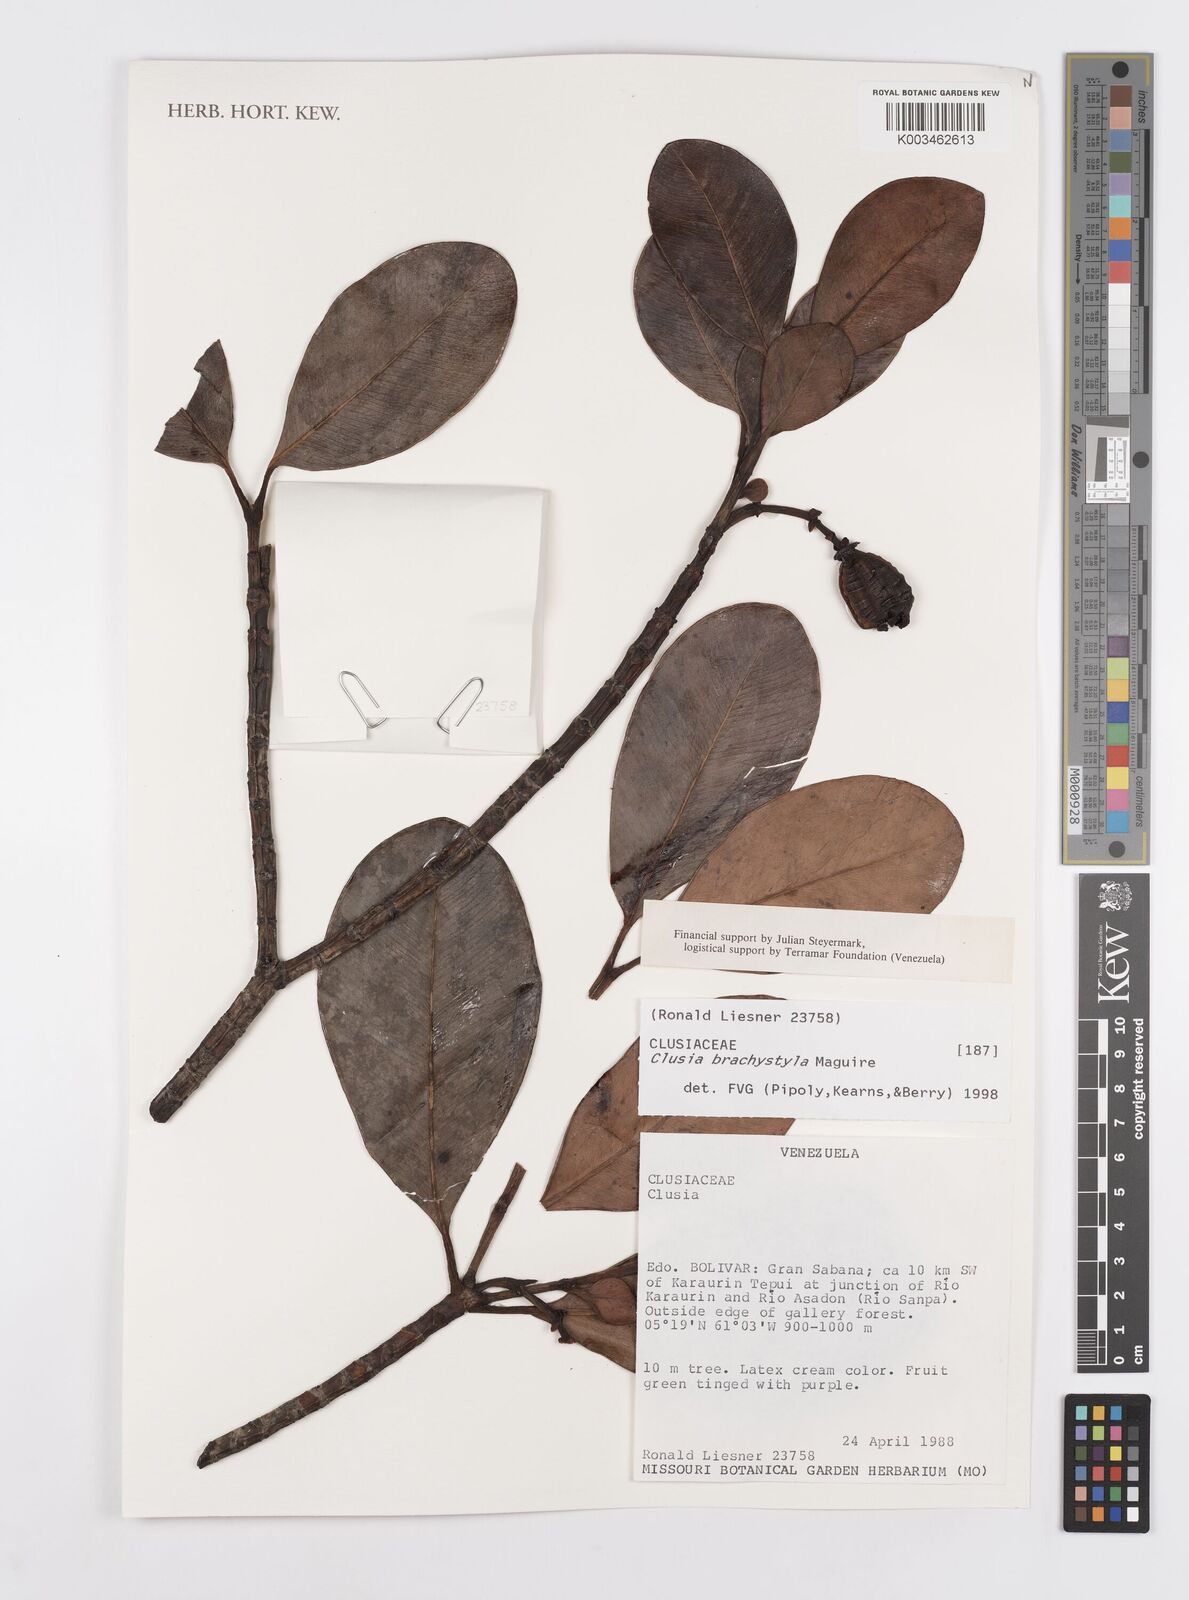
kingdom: Plantae
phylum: Tracheophyta
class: Magnoliopsida
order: Malpighiales
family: Clusiaceae
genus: Clusia
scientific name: Clusia brachystyla
